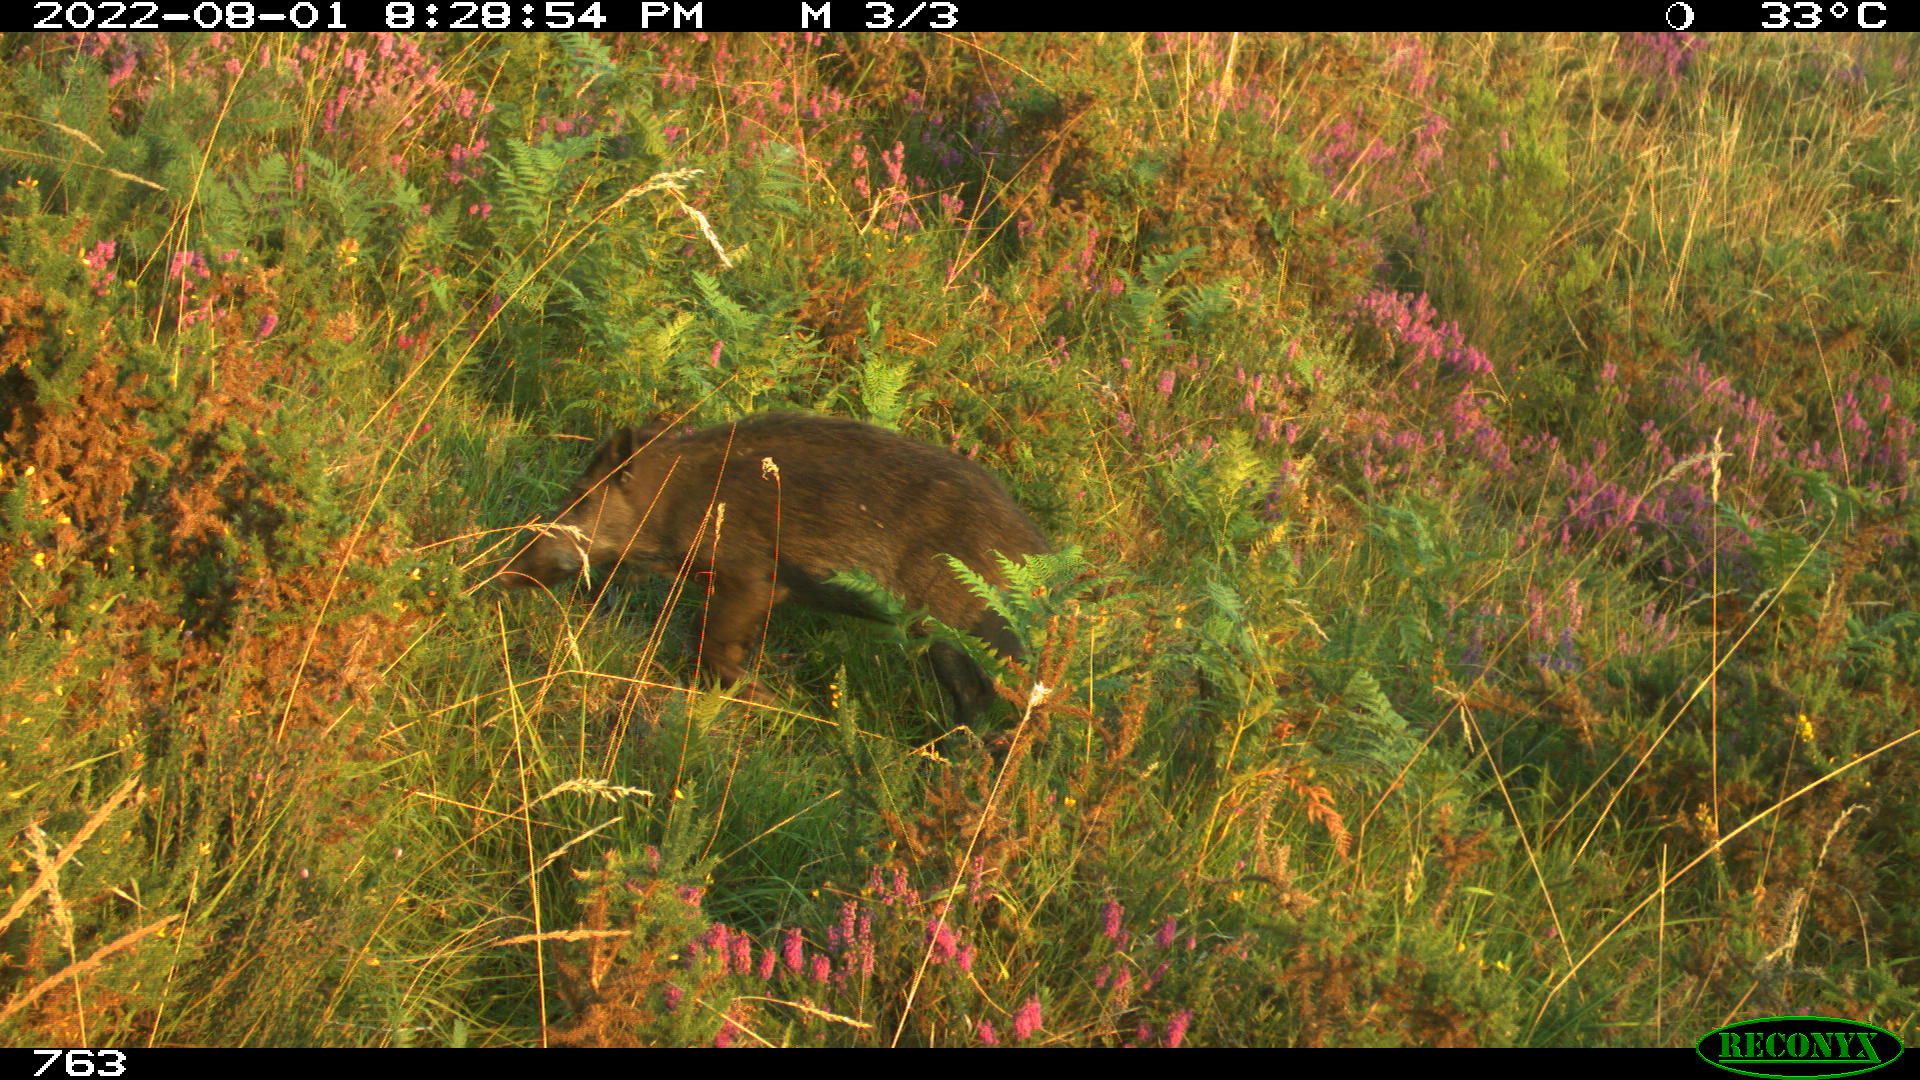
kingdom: Animalia
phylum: Chordata
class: Mammalia
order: Artiodactyla
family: Suidae
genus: Sus
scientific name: Sus scrofa
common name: Wild boar
